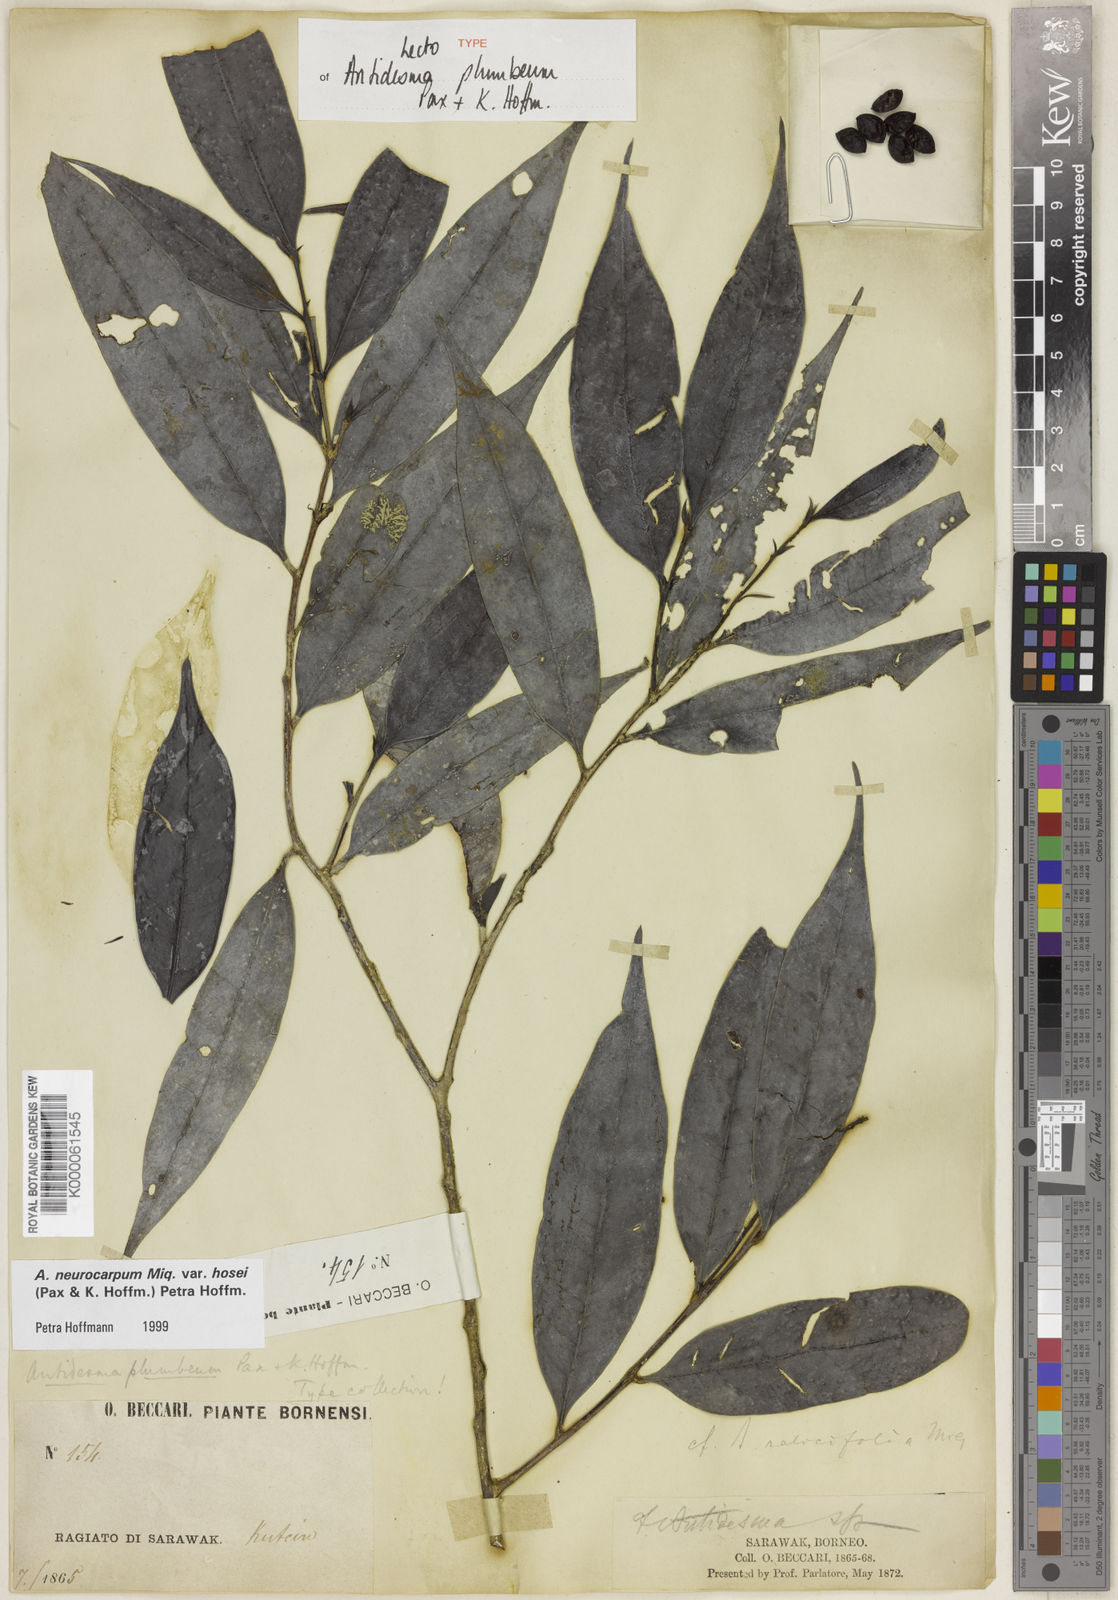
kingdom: Plantae
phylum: Tracheophyta
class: Magnoliopsida
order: Malpighiales
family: Phyllanthaceae
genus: Antidesma
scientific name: Antidesma neurocarpum
